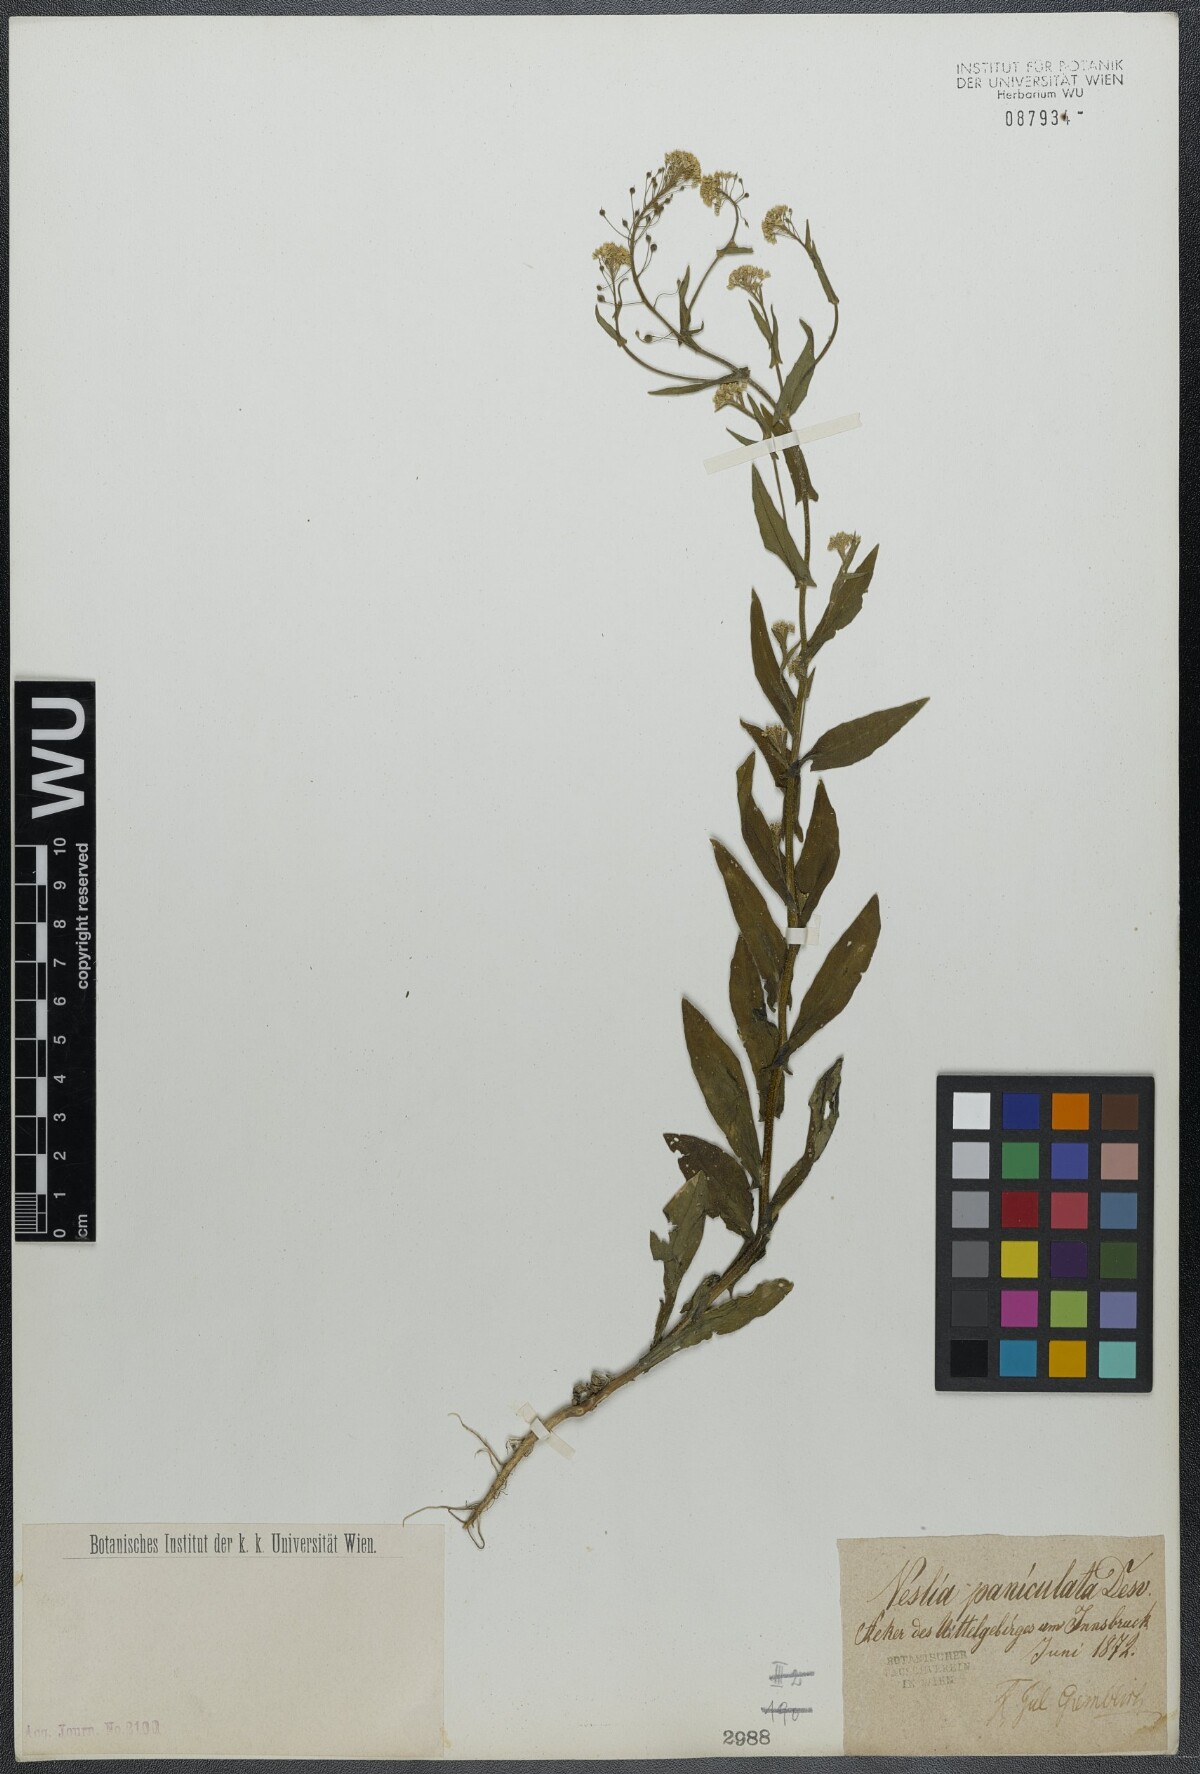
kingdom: Plantae
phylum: Tracheophyta
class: Magnoliopsida
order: Brassicales
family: Brassicaceae
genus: Neslia
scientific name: Neslia paniculata
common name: Ball mustard
